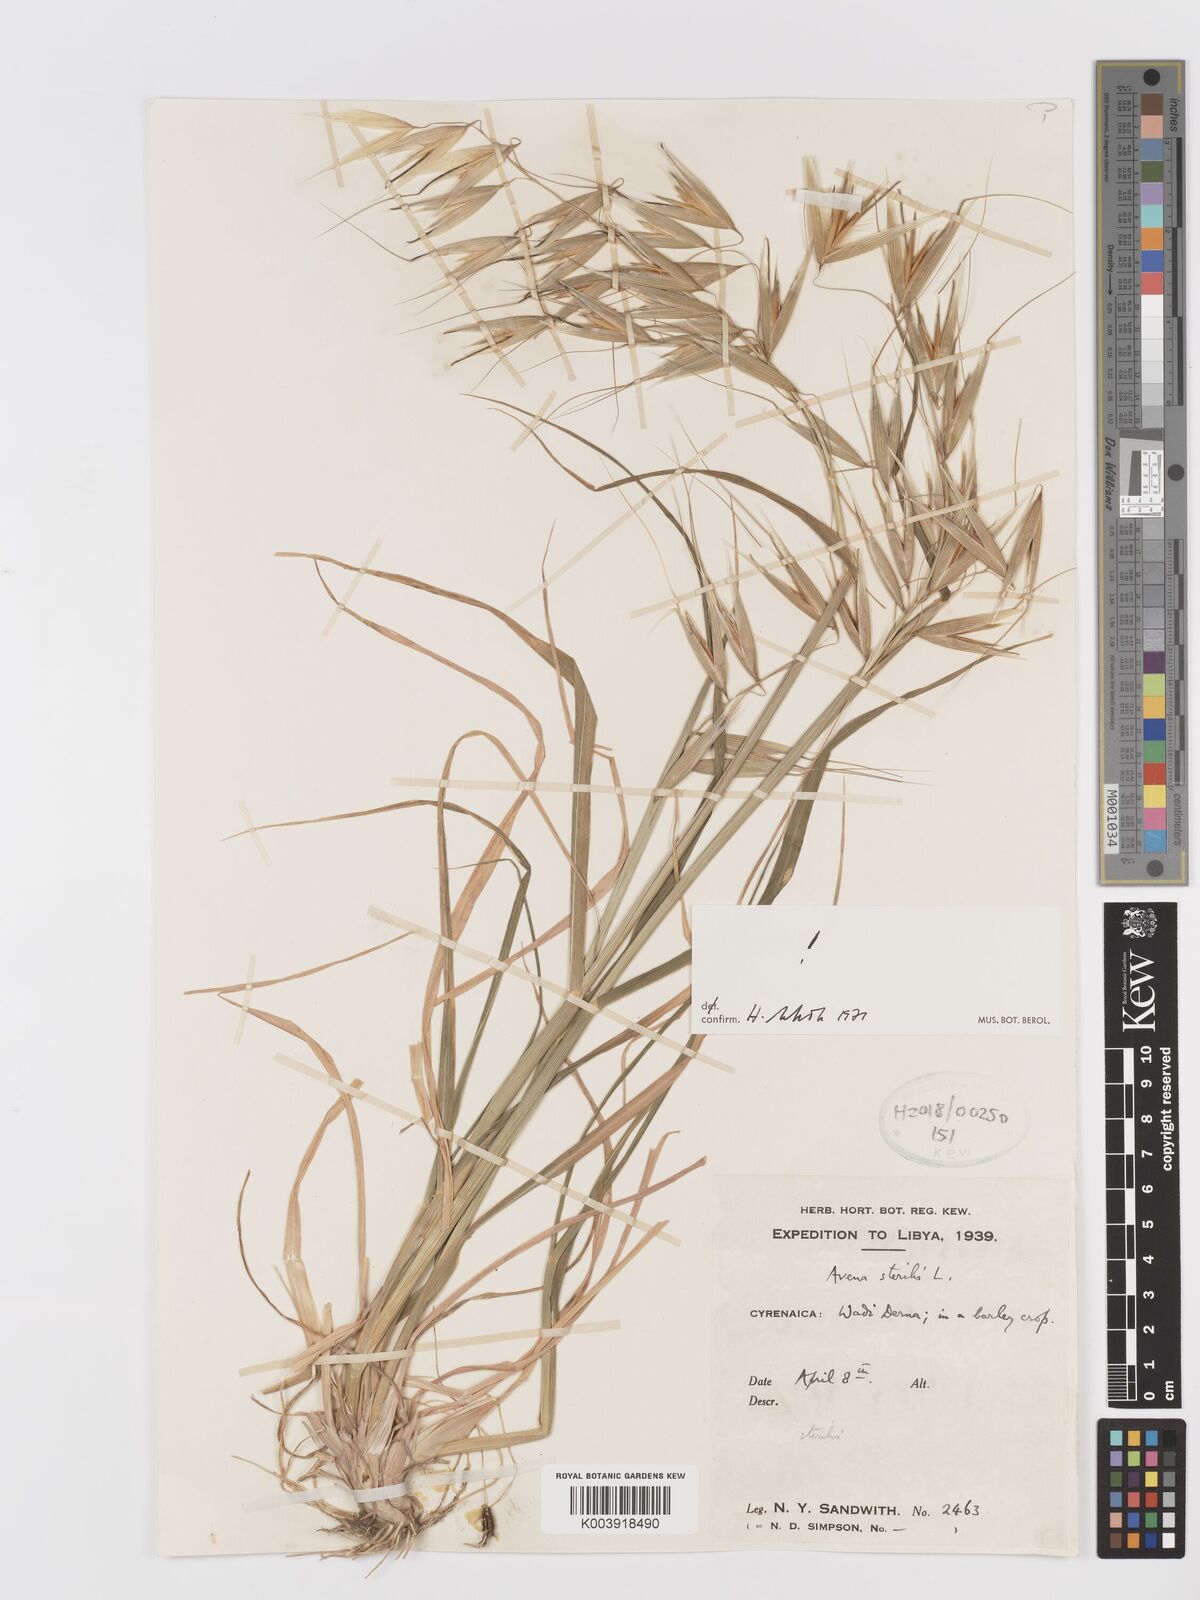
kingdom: Plantae
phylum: Tracheophyta
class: Liliopsida
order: Poales
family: Poaceae
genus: Avena
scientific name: Avena sterilis
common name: Animated oat
